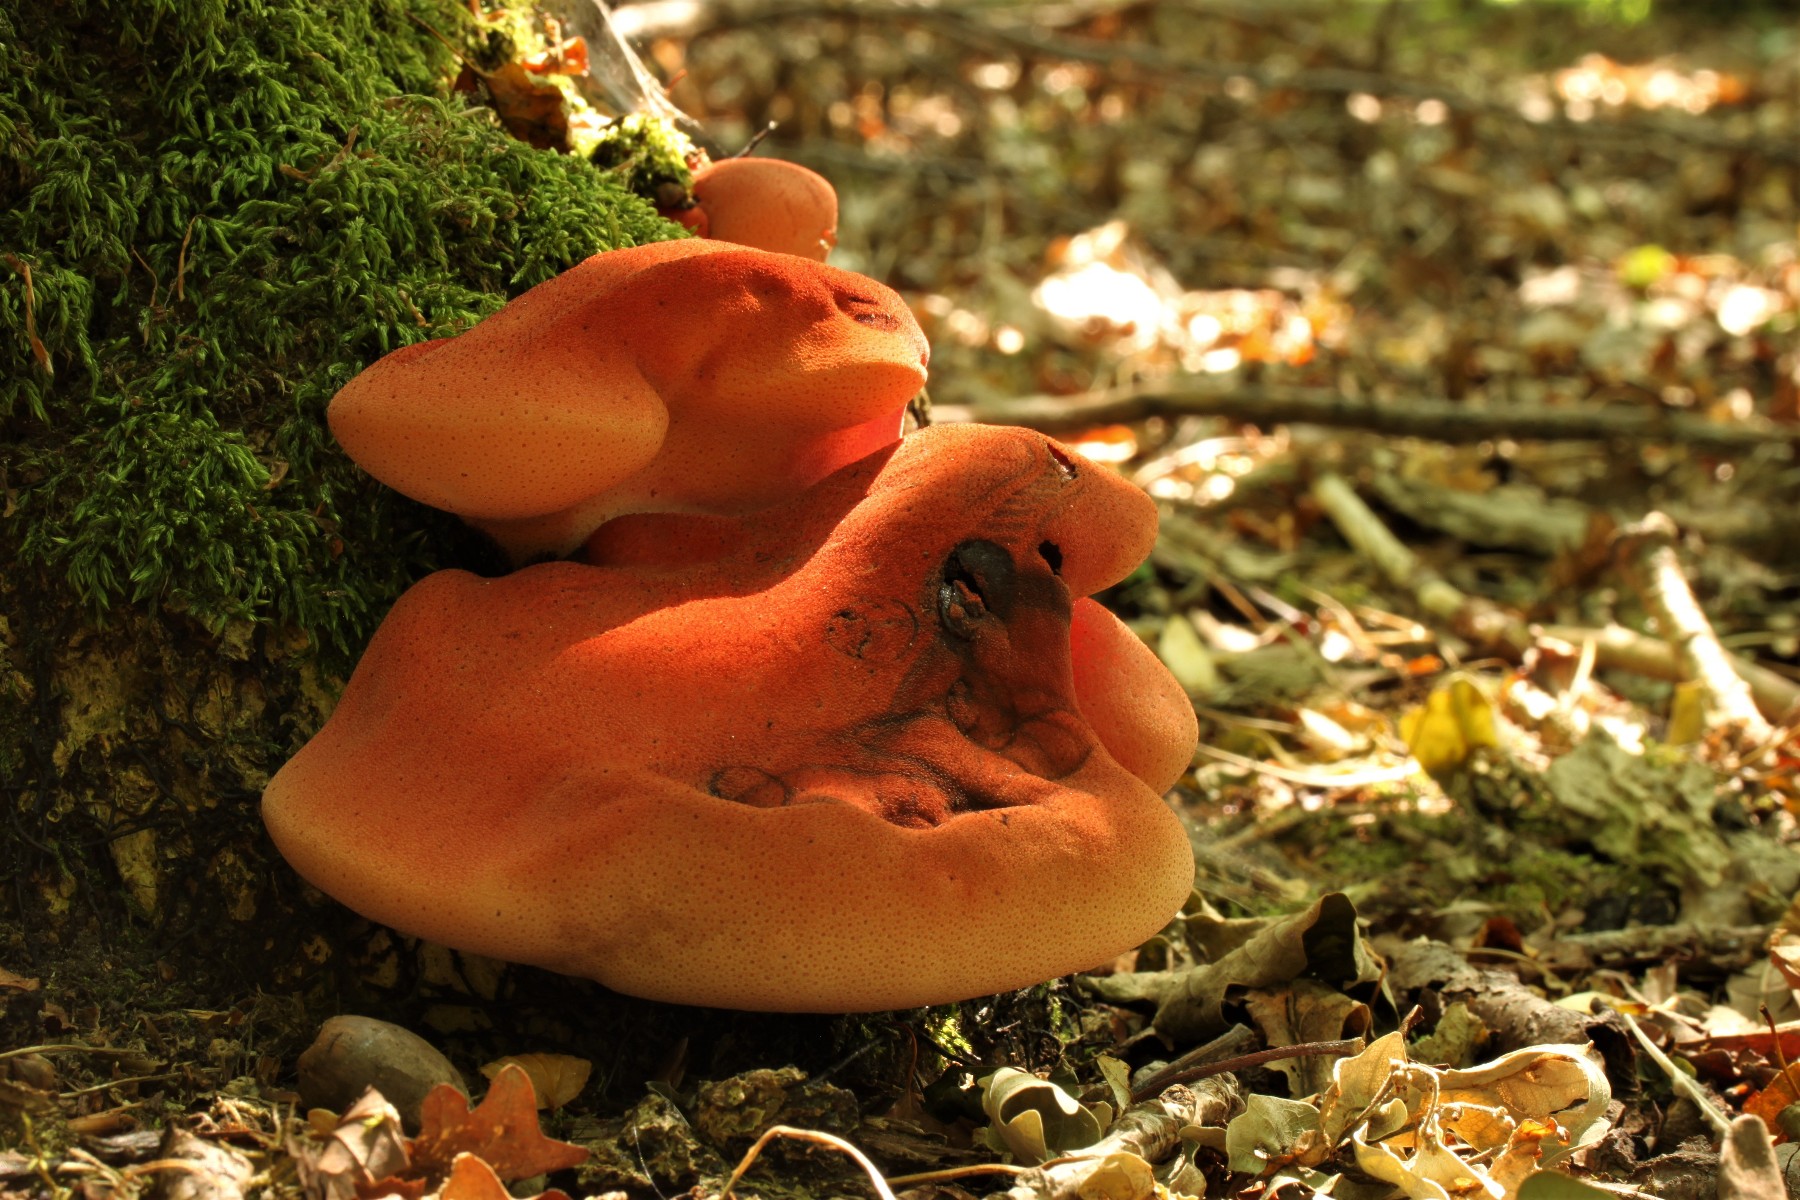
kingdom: Fungi
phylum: Basidiomycota
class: Agaricomycetes
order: Agaricales
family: Fistulinaceae
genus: Fistulina
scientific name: Fistulina hepatica
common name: oksetunge
